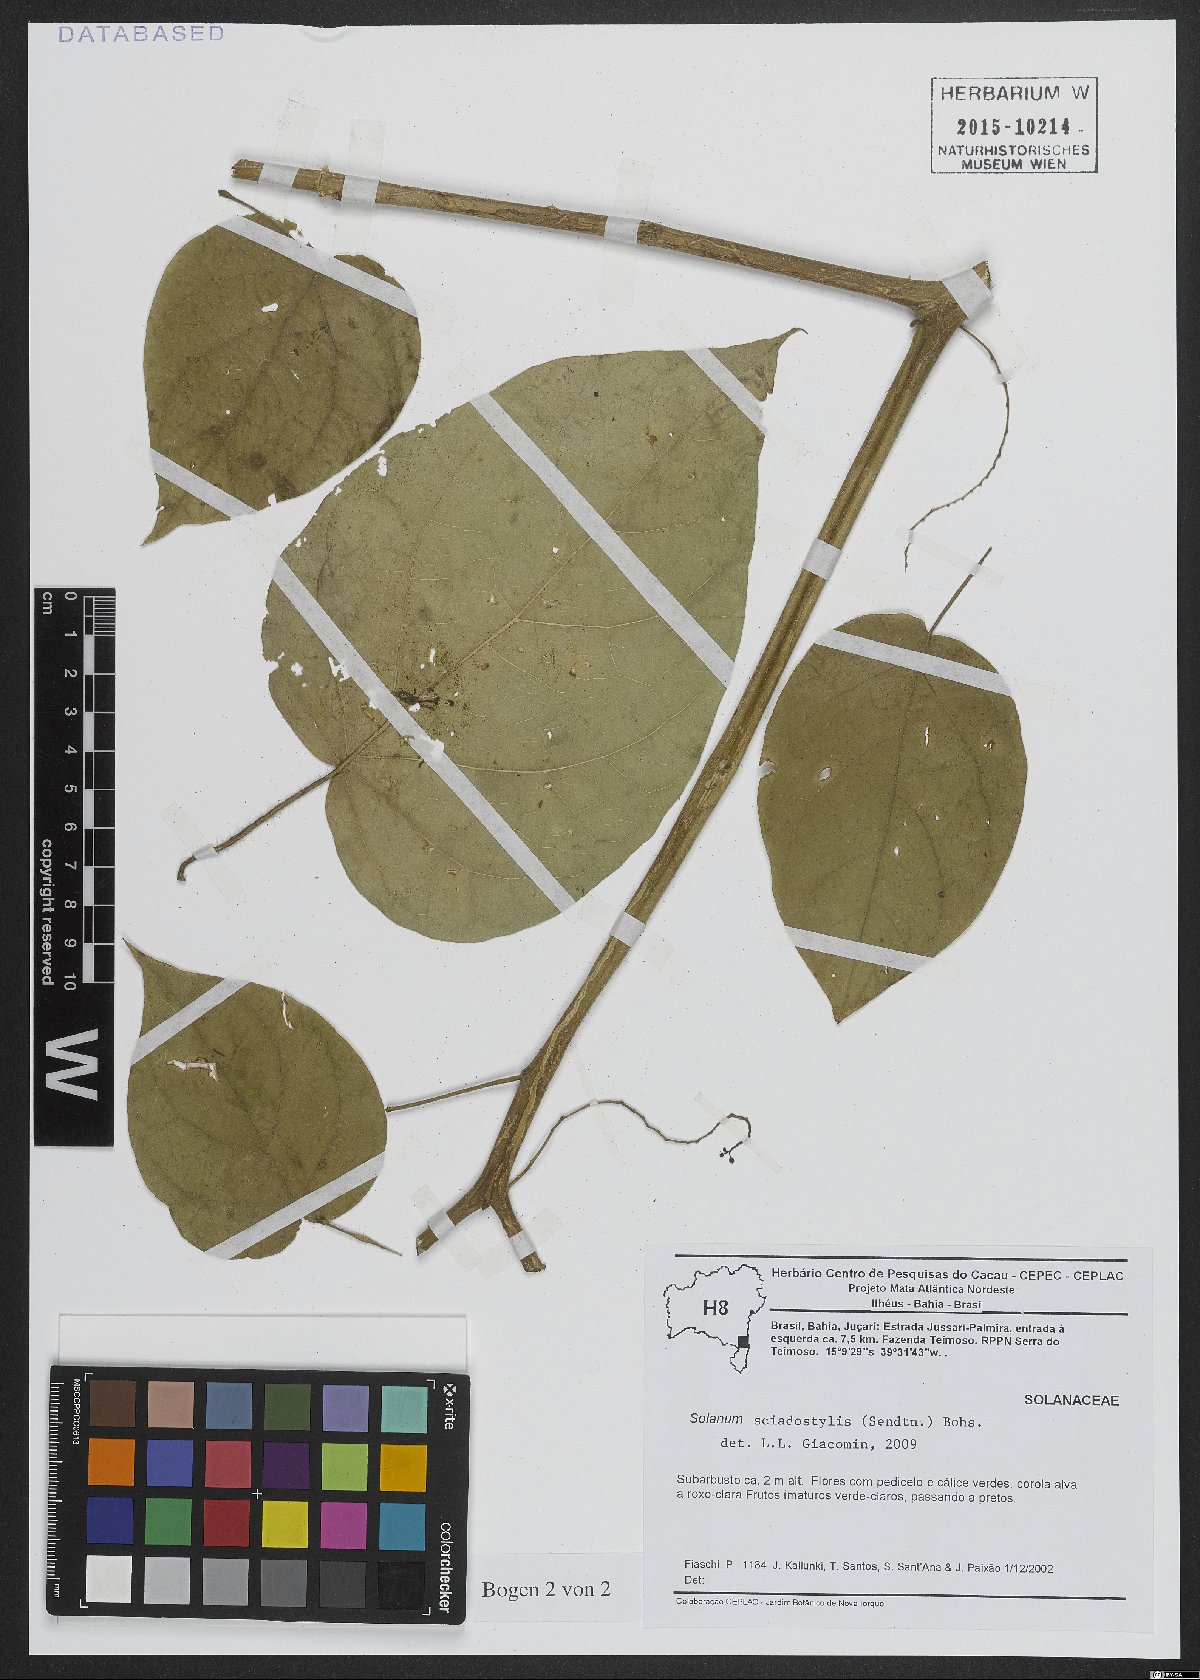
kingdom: Plantae
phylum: Tracheophyta
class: Magnoliopsida
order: Solanales
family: Solanaceae
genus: Solanum
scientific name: Solanum sciadostylis
